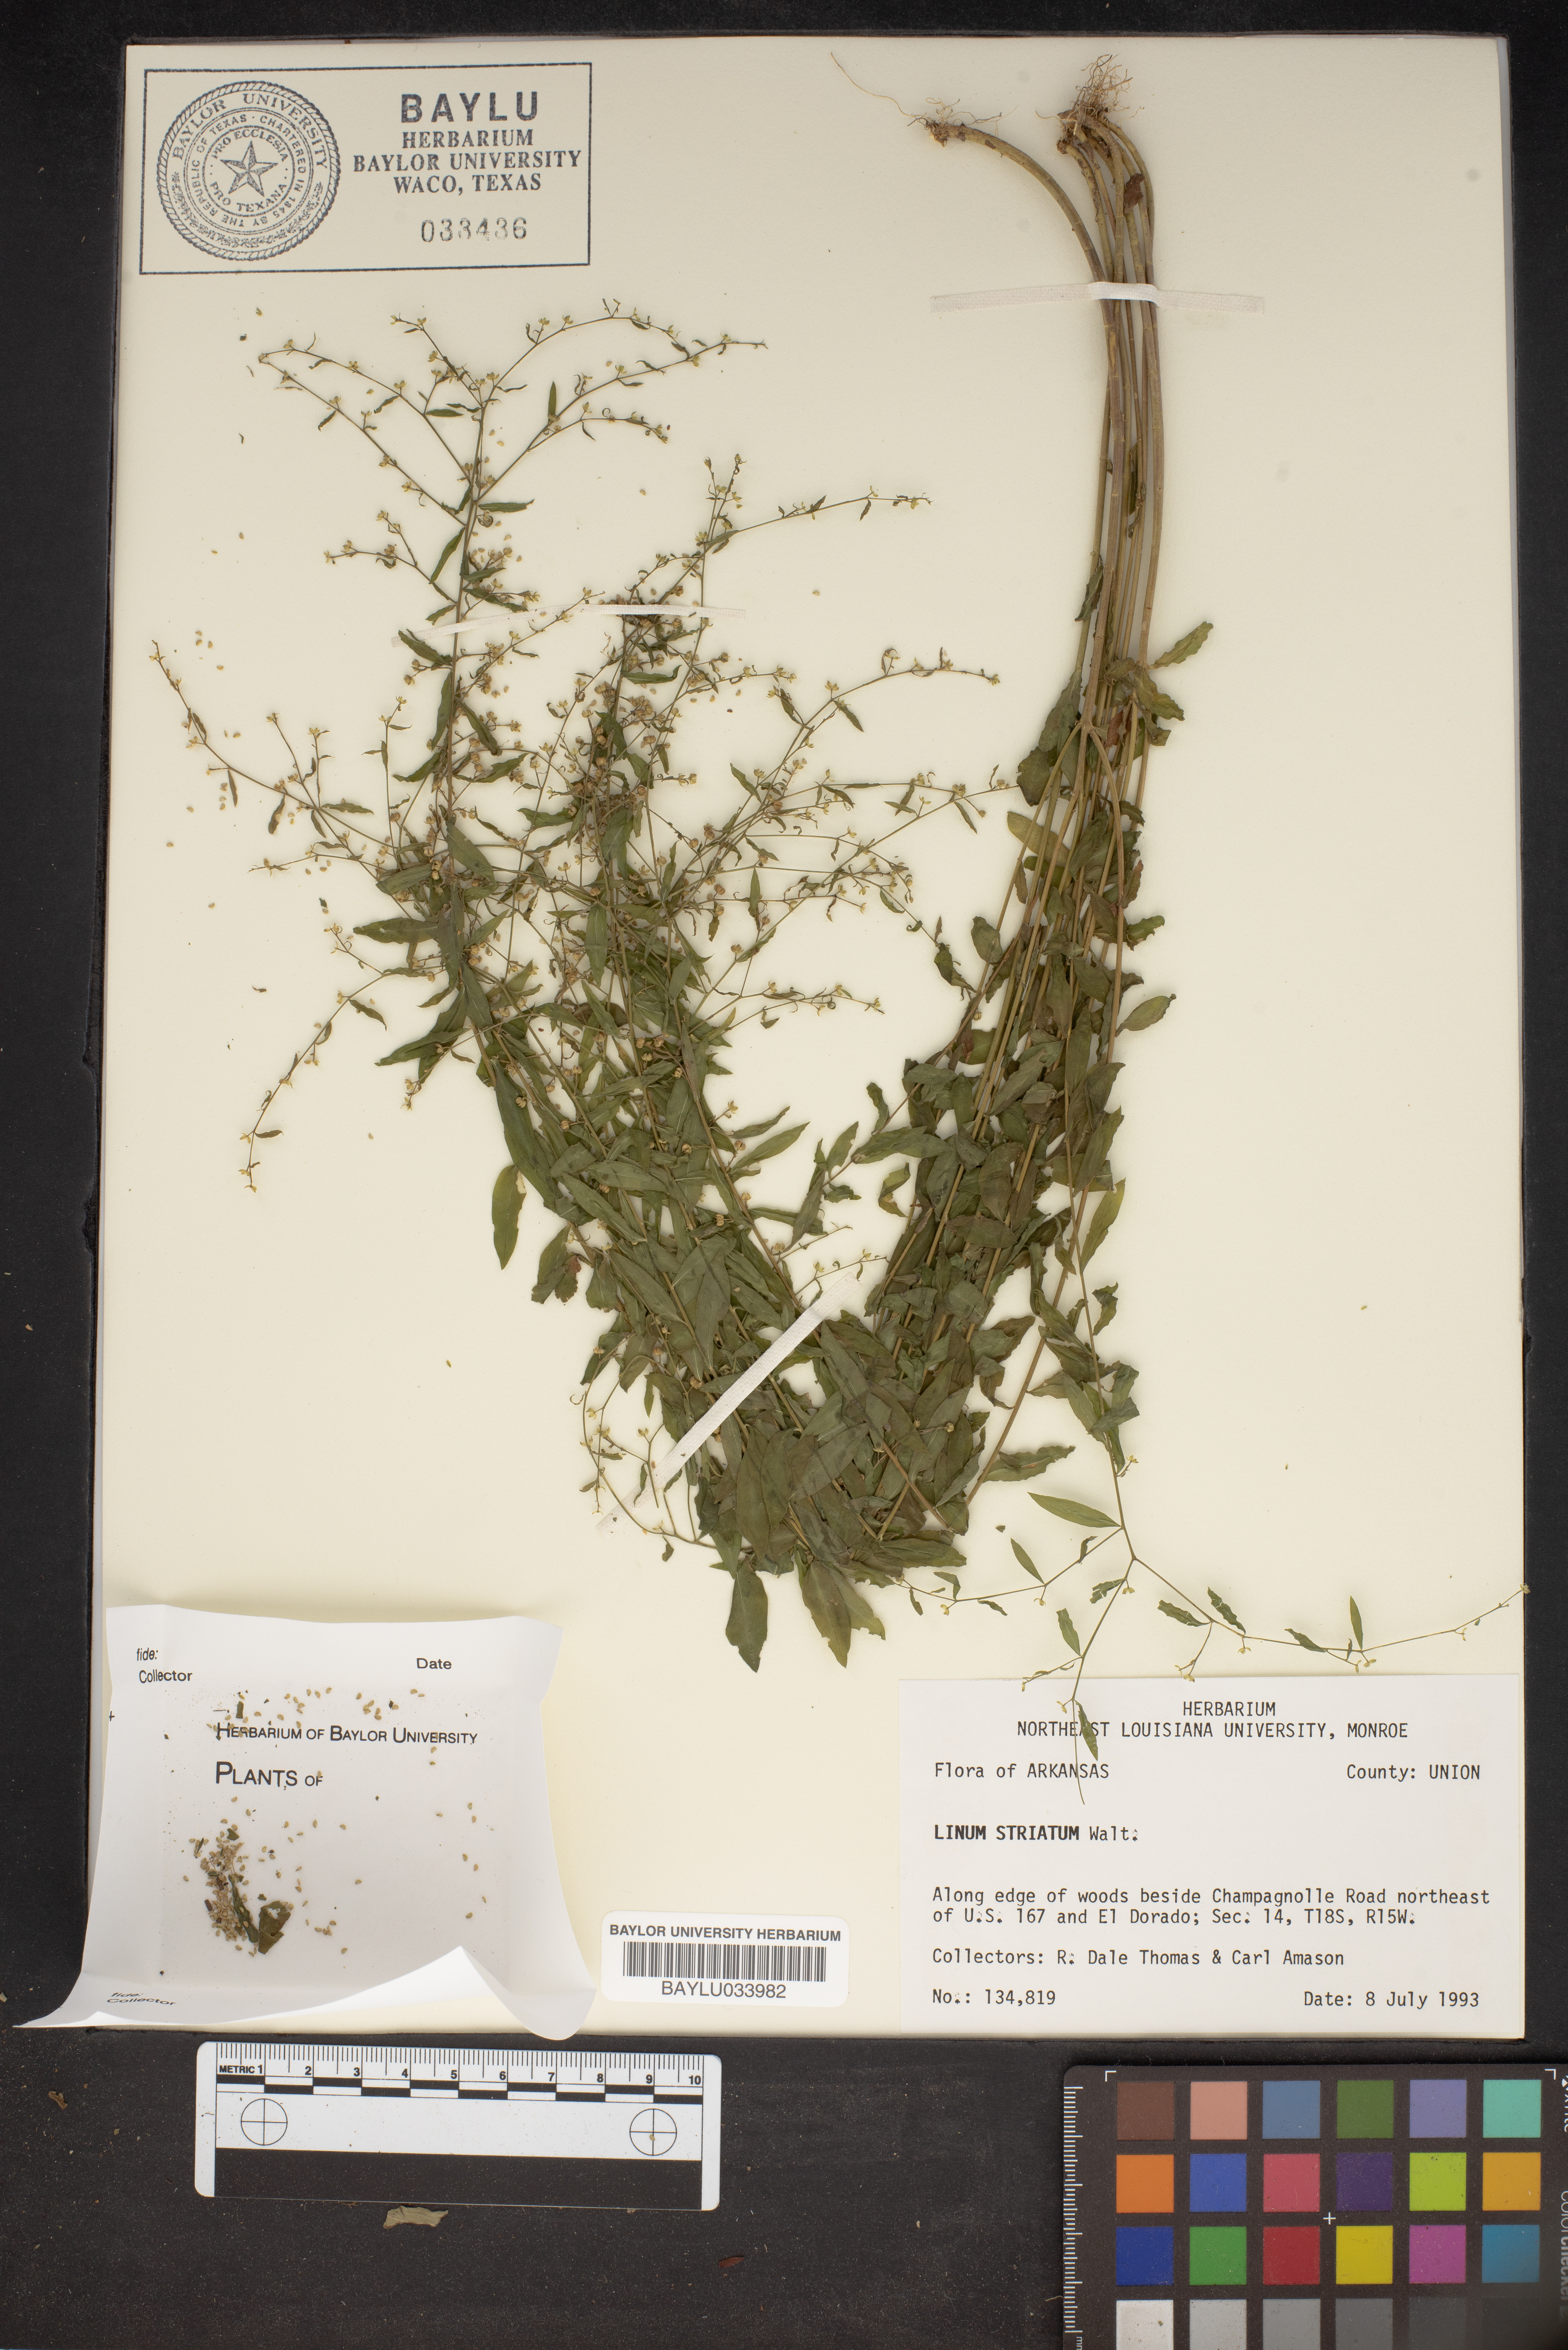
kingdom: Plantae
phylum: Tracheophyta
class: Magnoliopsida
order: Malpighiales
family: Linaceae
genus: Linum
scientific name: Linum striatum
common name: Ridged yellow flax
